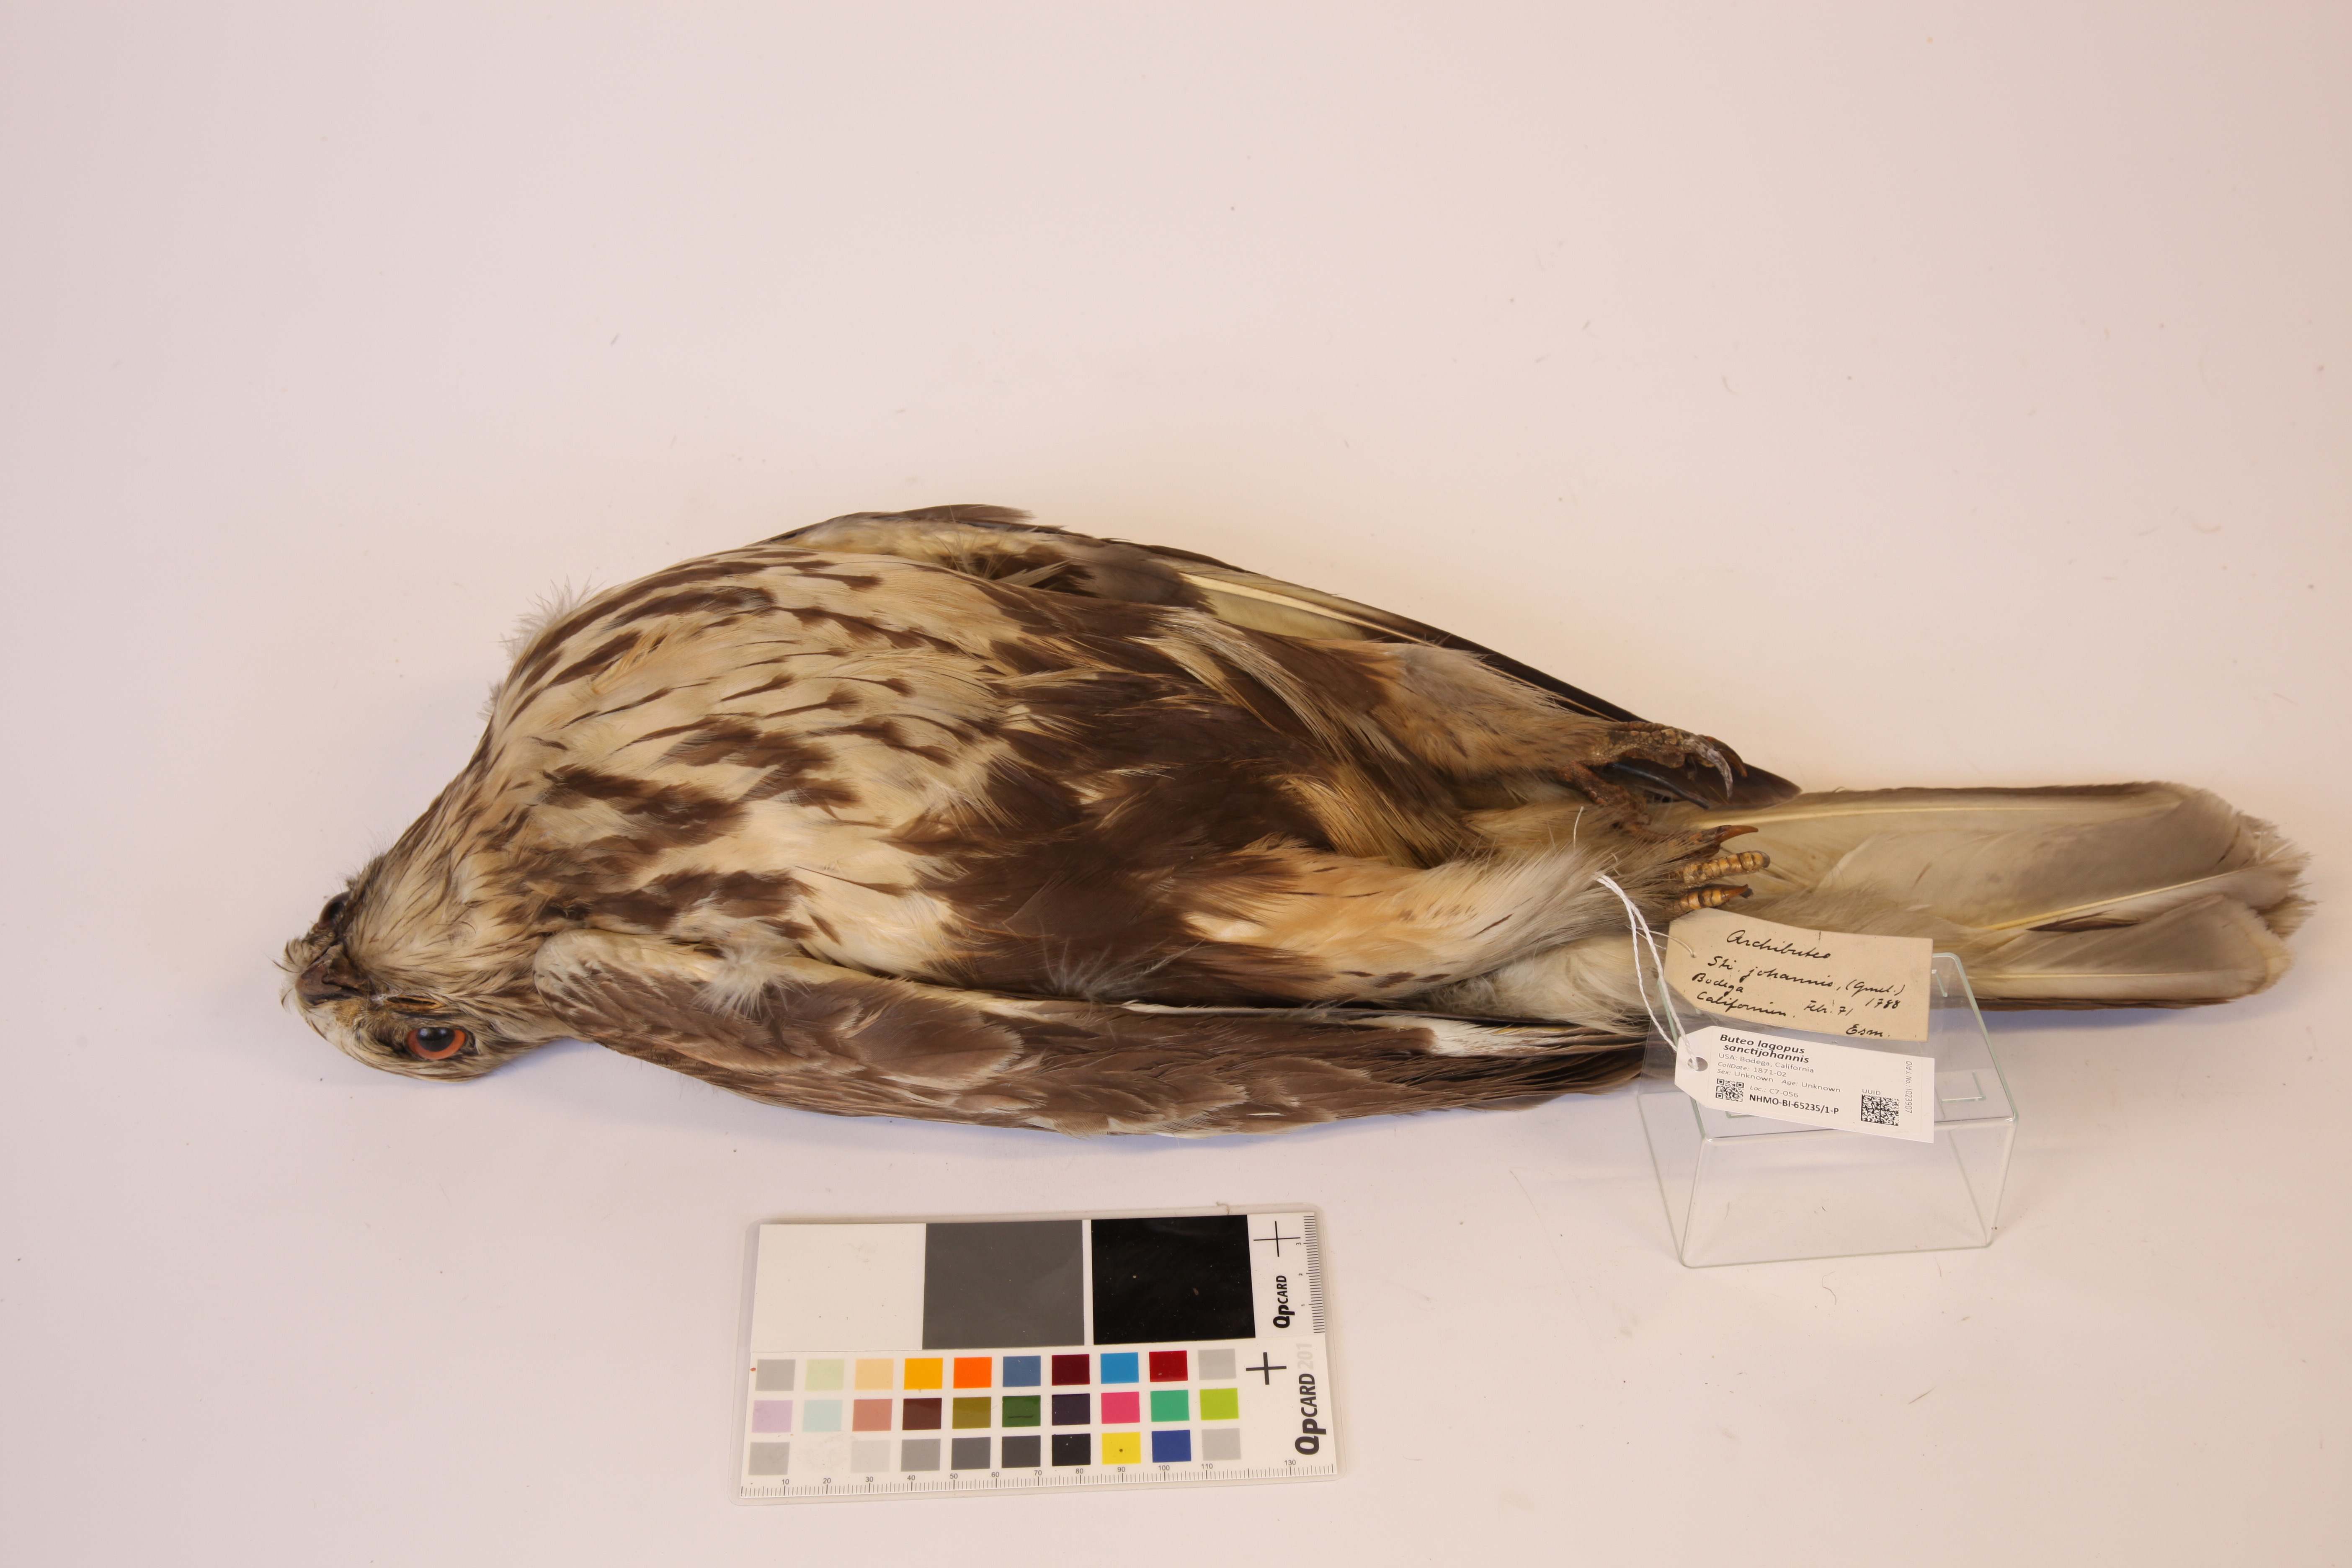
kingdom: Animalia
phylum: Chordata
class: Aves
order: Accipitriformes
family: Accipitridae
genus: Buteo
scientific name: Buteo lagopus
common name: Rough-legged buzzard
